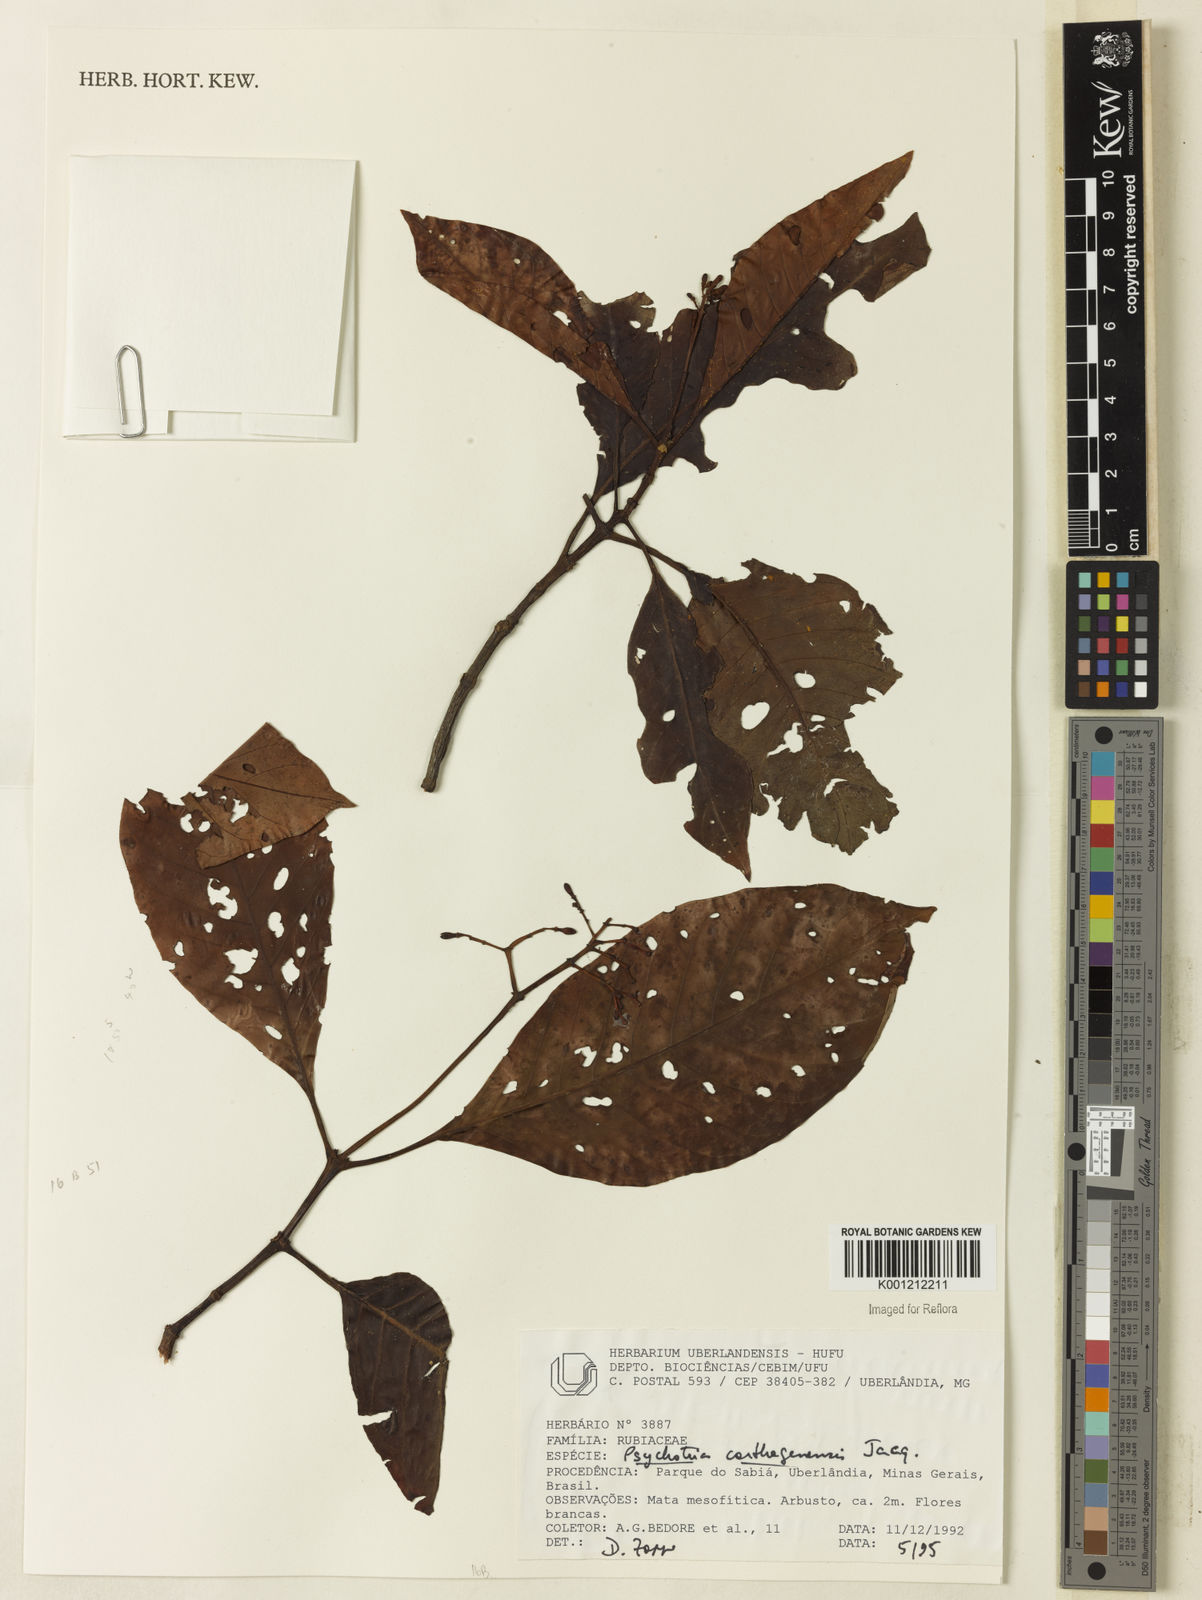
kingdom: Plantae
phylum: Tracheophyta
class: Magnoliopsida
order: Gentianales
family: Rubiaceae
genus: Psychotria
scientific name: Psychotria carthagenensis
